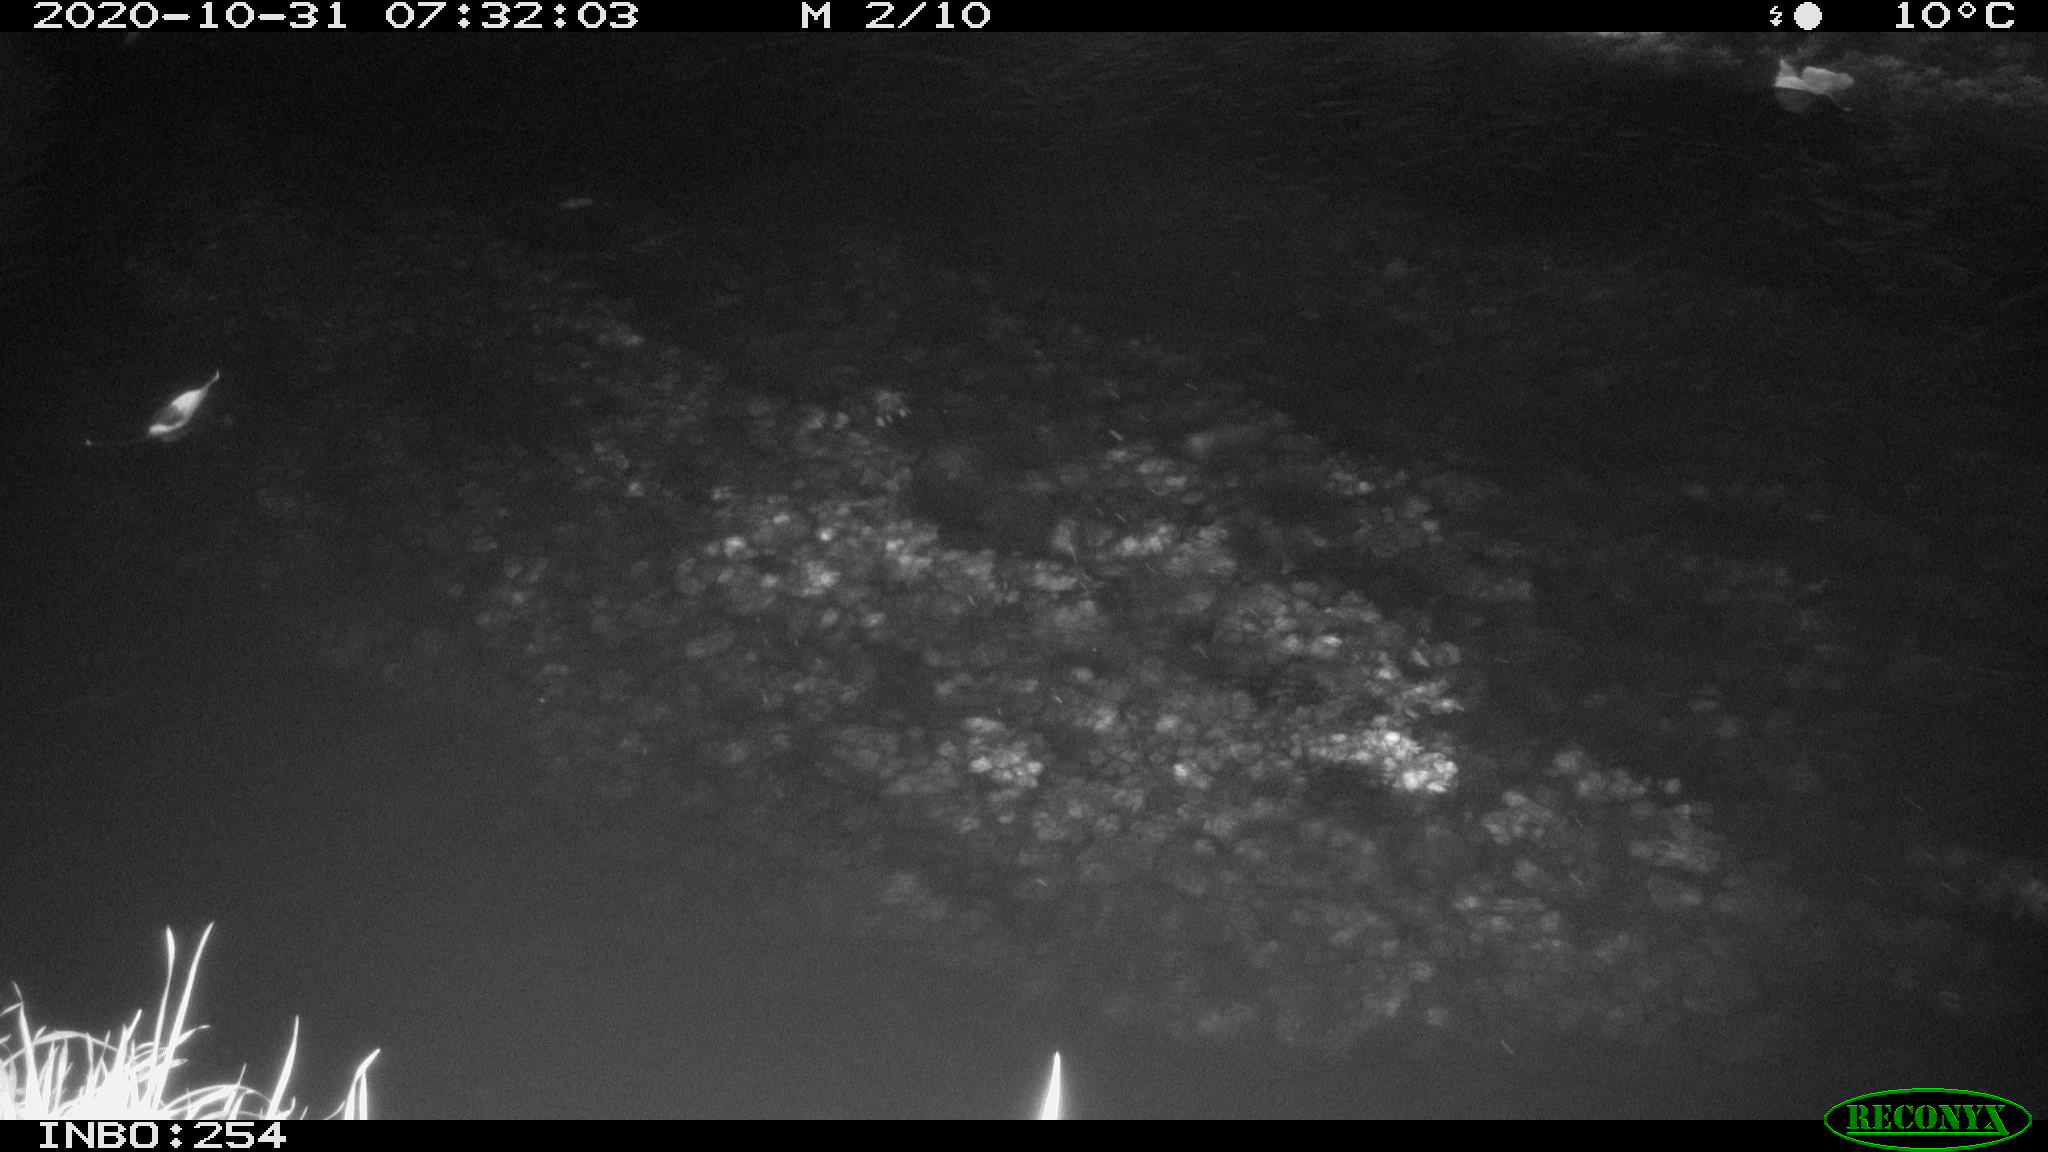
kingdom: Animalia
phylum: Chordata
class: Aves
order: Anseriformes
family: Anatidae
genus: Anas
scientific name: Anas platyrhynchos
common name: Mallard
